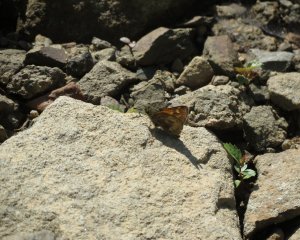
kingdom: Animalia
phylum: Arthropoda
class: Insecta
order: Lepidoptera
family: Hesperiidae
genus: Polites
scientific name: Polites
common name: Long Dash Skipper
